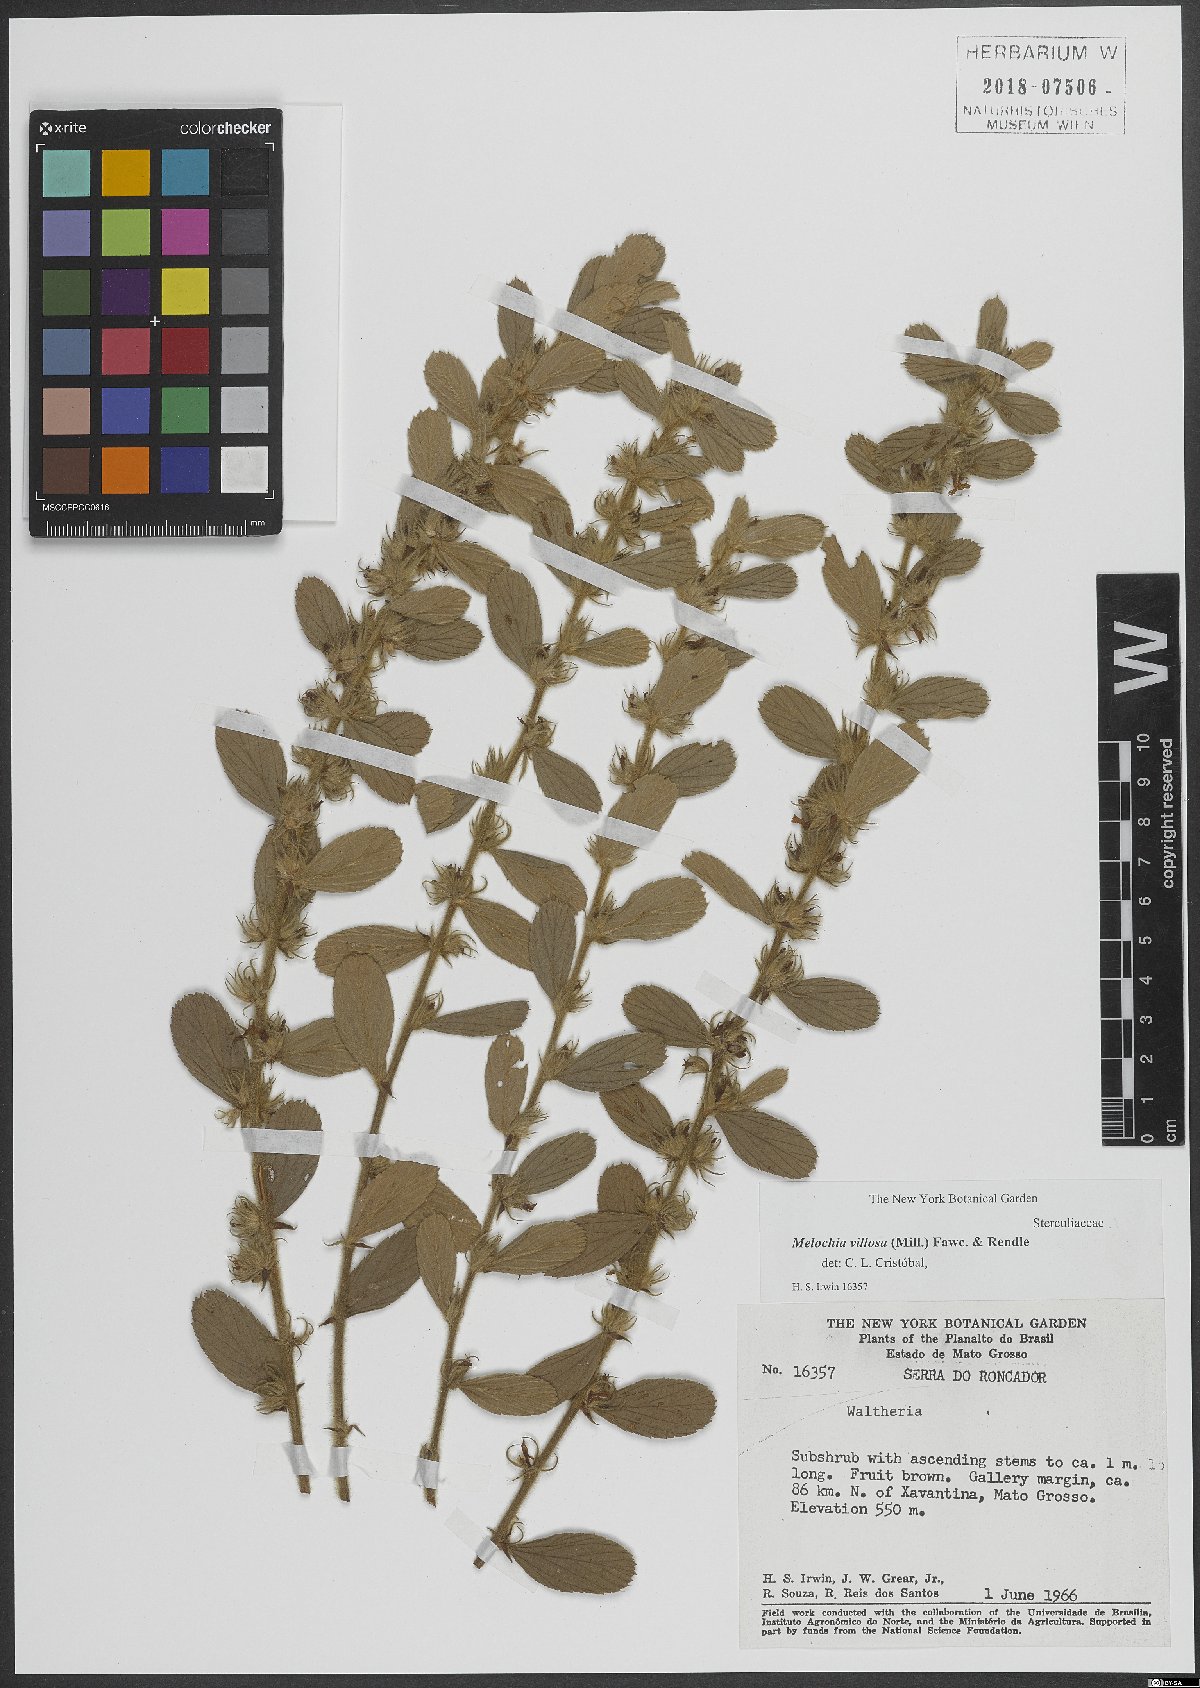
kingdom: Plantae
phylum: Tracheophyta
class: Magnoliopsida
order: Malvales
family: Malvaceae
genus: Melochia
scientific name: Melochia spicata
